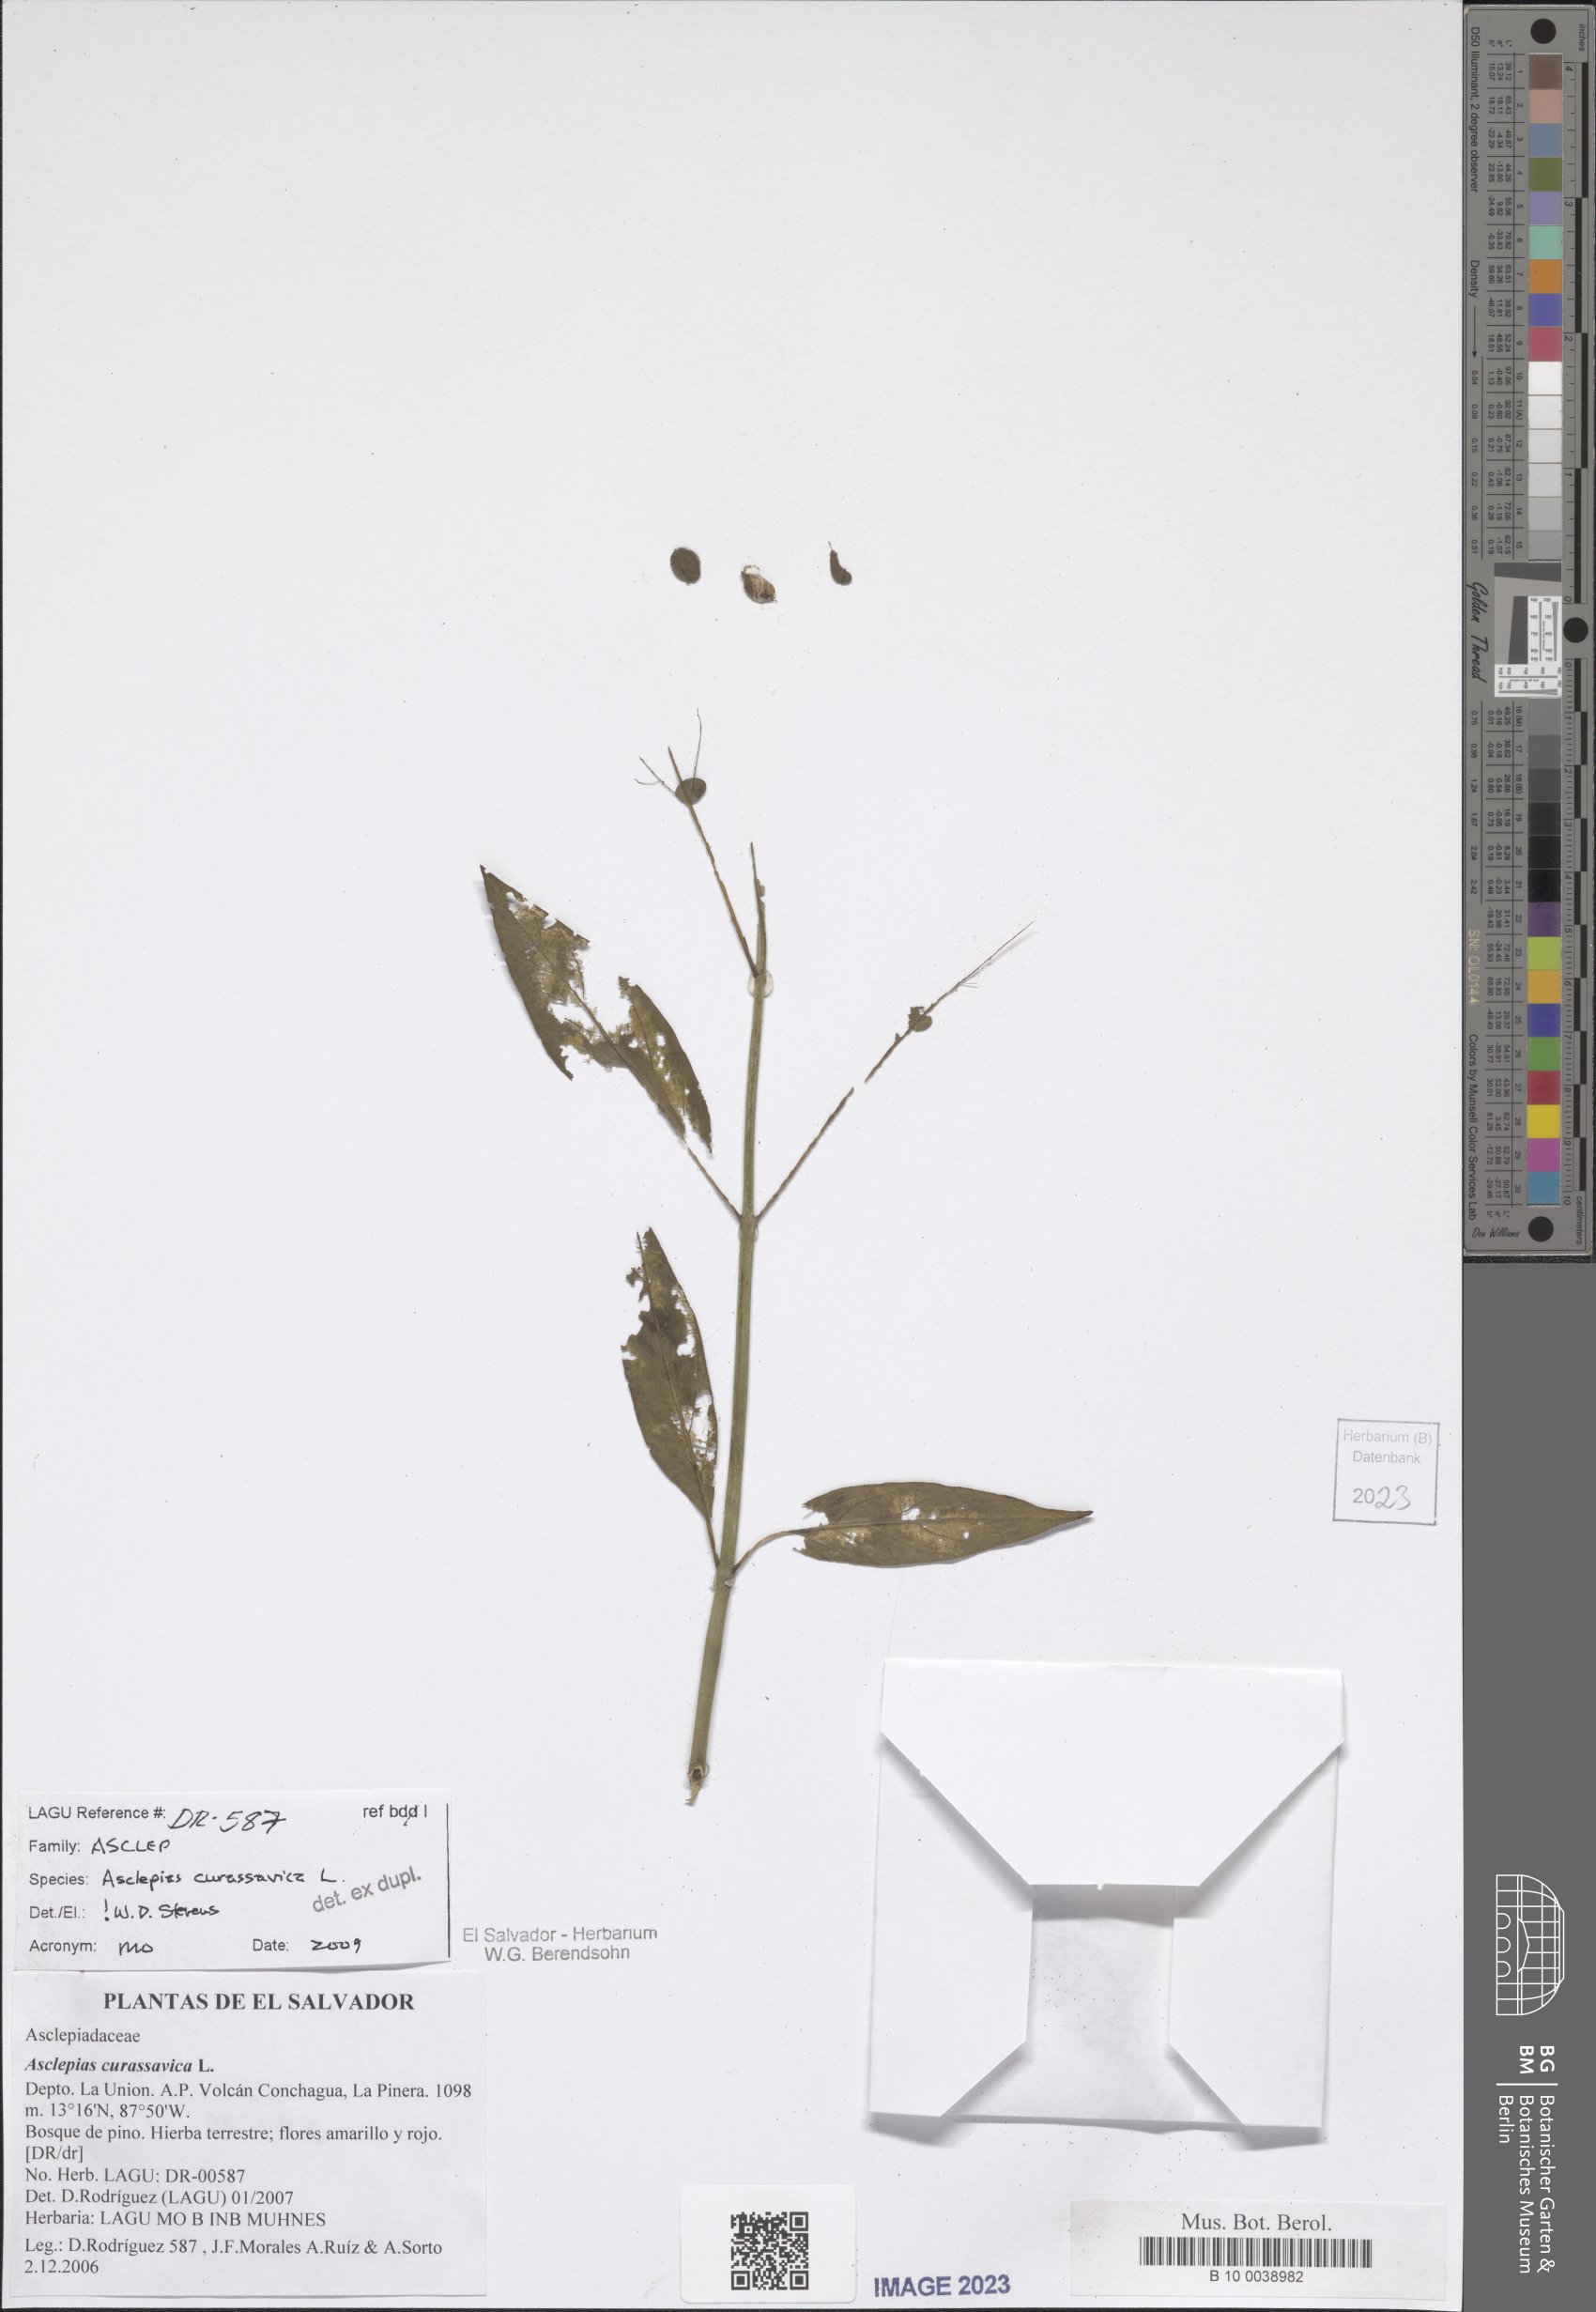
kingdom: Plantae
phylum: Tracheophyta
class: Magnoliopsida
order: Gentianales
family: Apocynaceae
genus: Asclepias
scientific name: Asclepias curassavica
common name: Bloodflower
